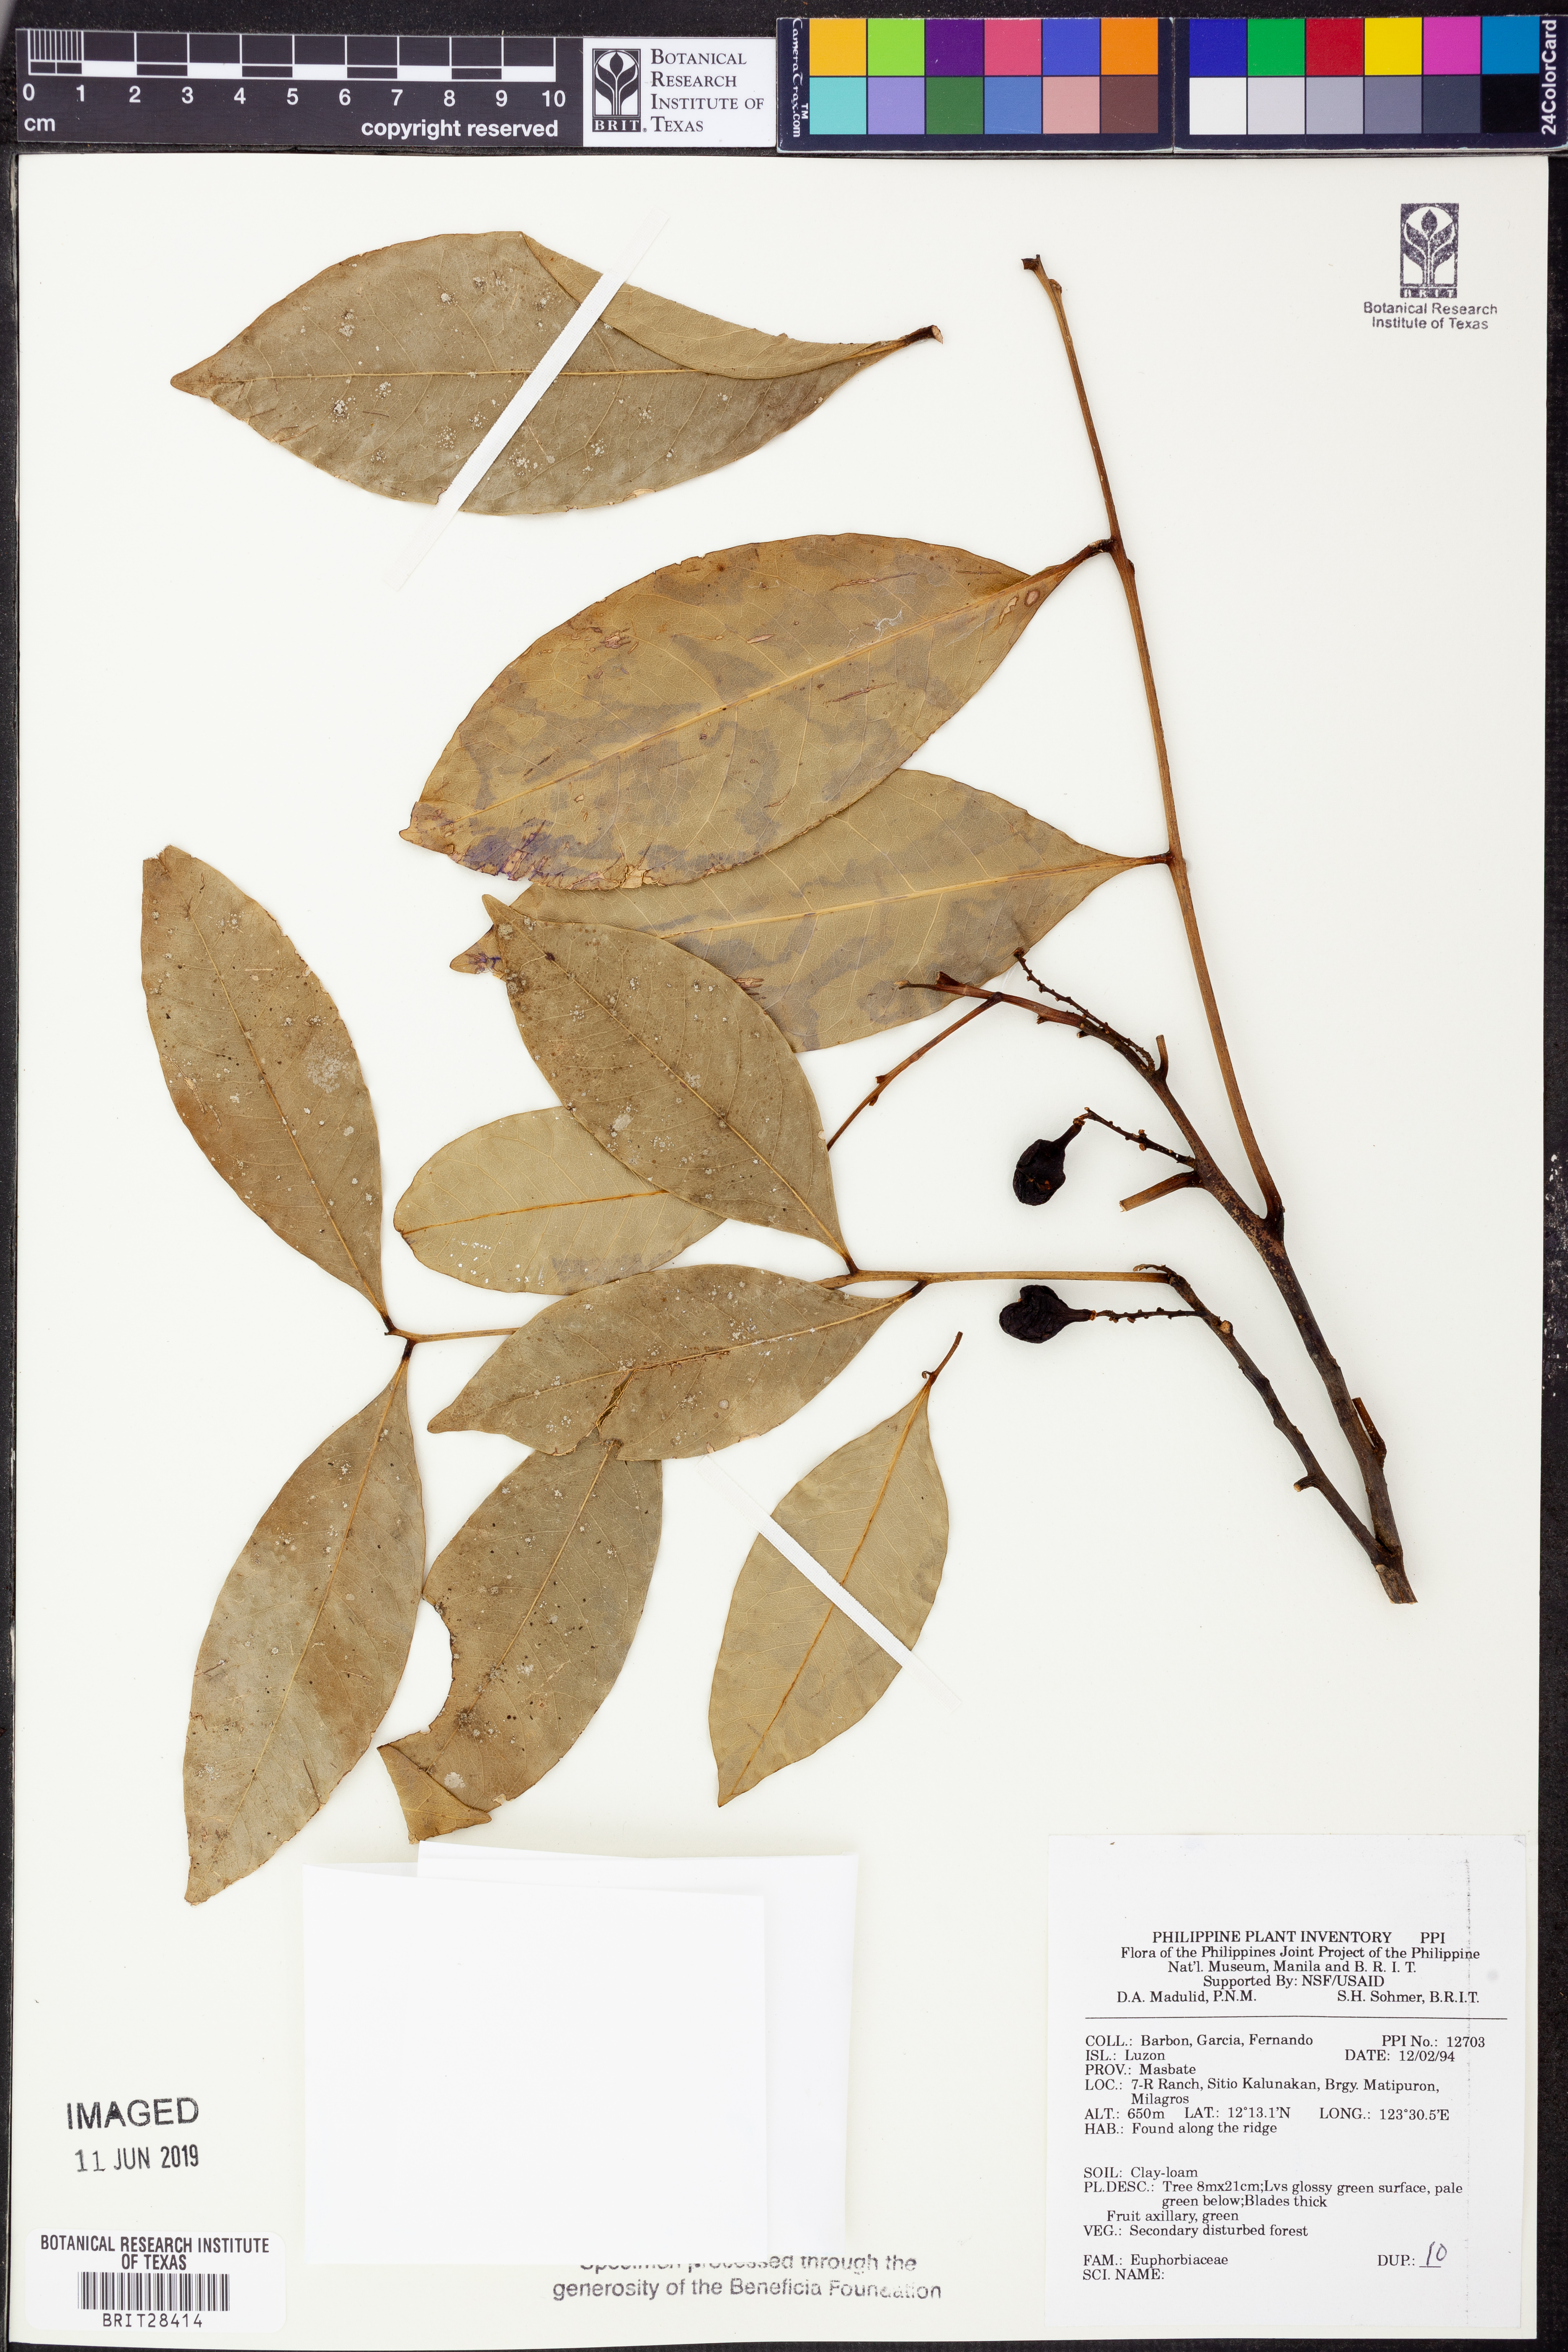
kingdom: Plantae
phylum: Tracheophyta
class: Magnoliopsida
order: Malpighiales
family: Euphorbiaceae
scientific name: Euphorbiaceae
